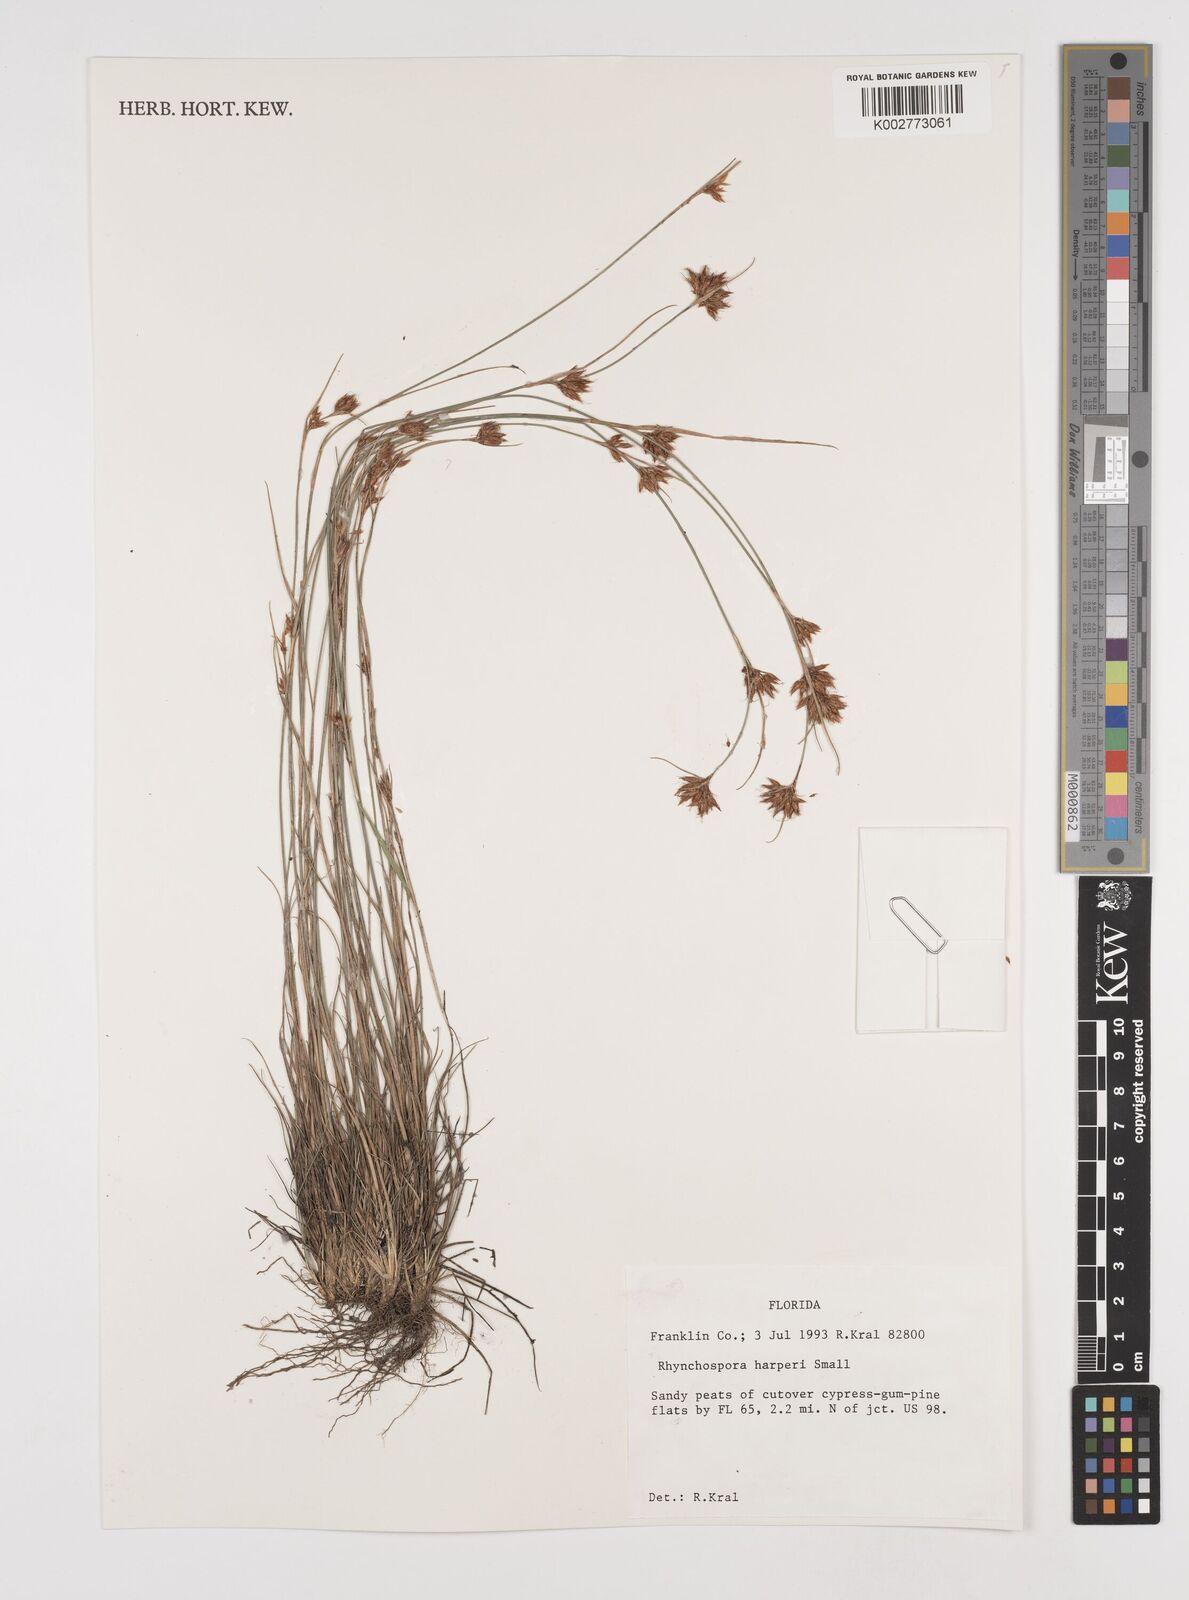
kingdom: Plantae
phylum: Tracheophyta
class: Liliopsida
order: Poales
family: Cyperaceae
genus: Rhynchospora
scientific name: Rhynchospora harperi
